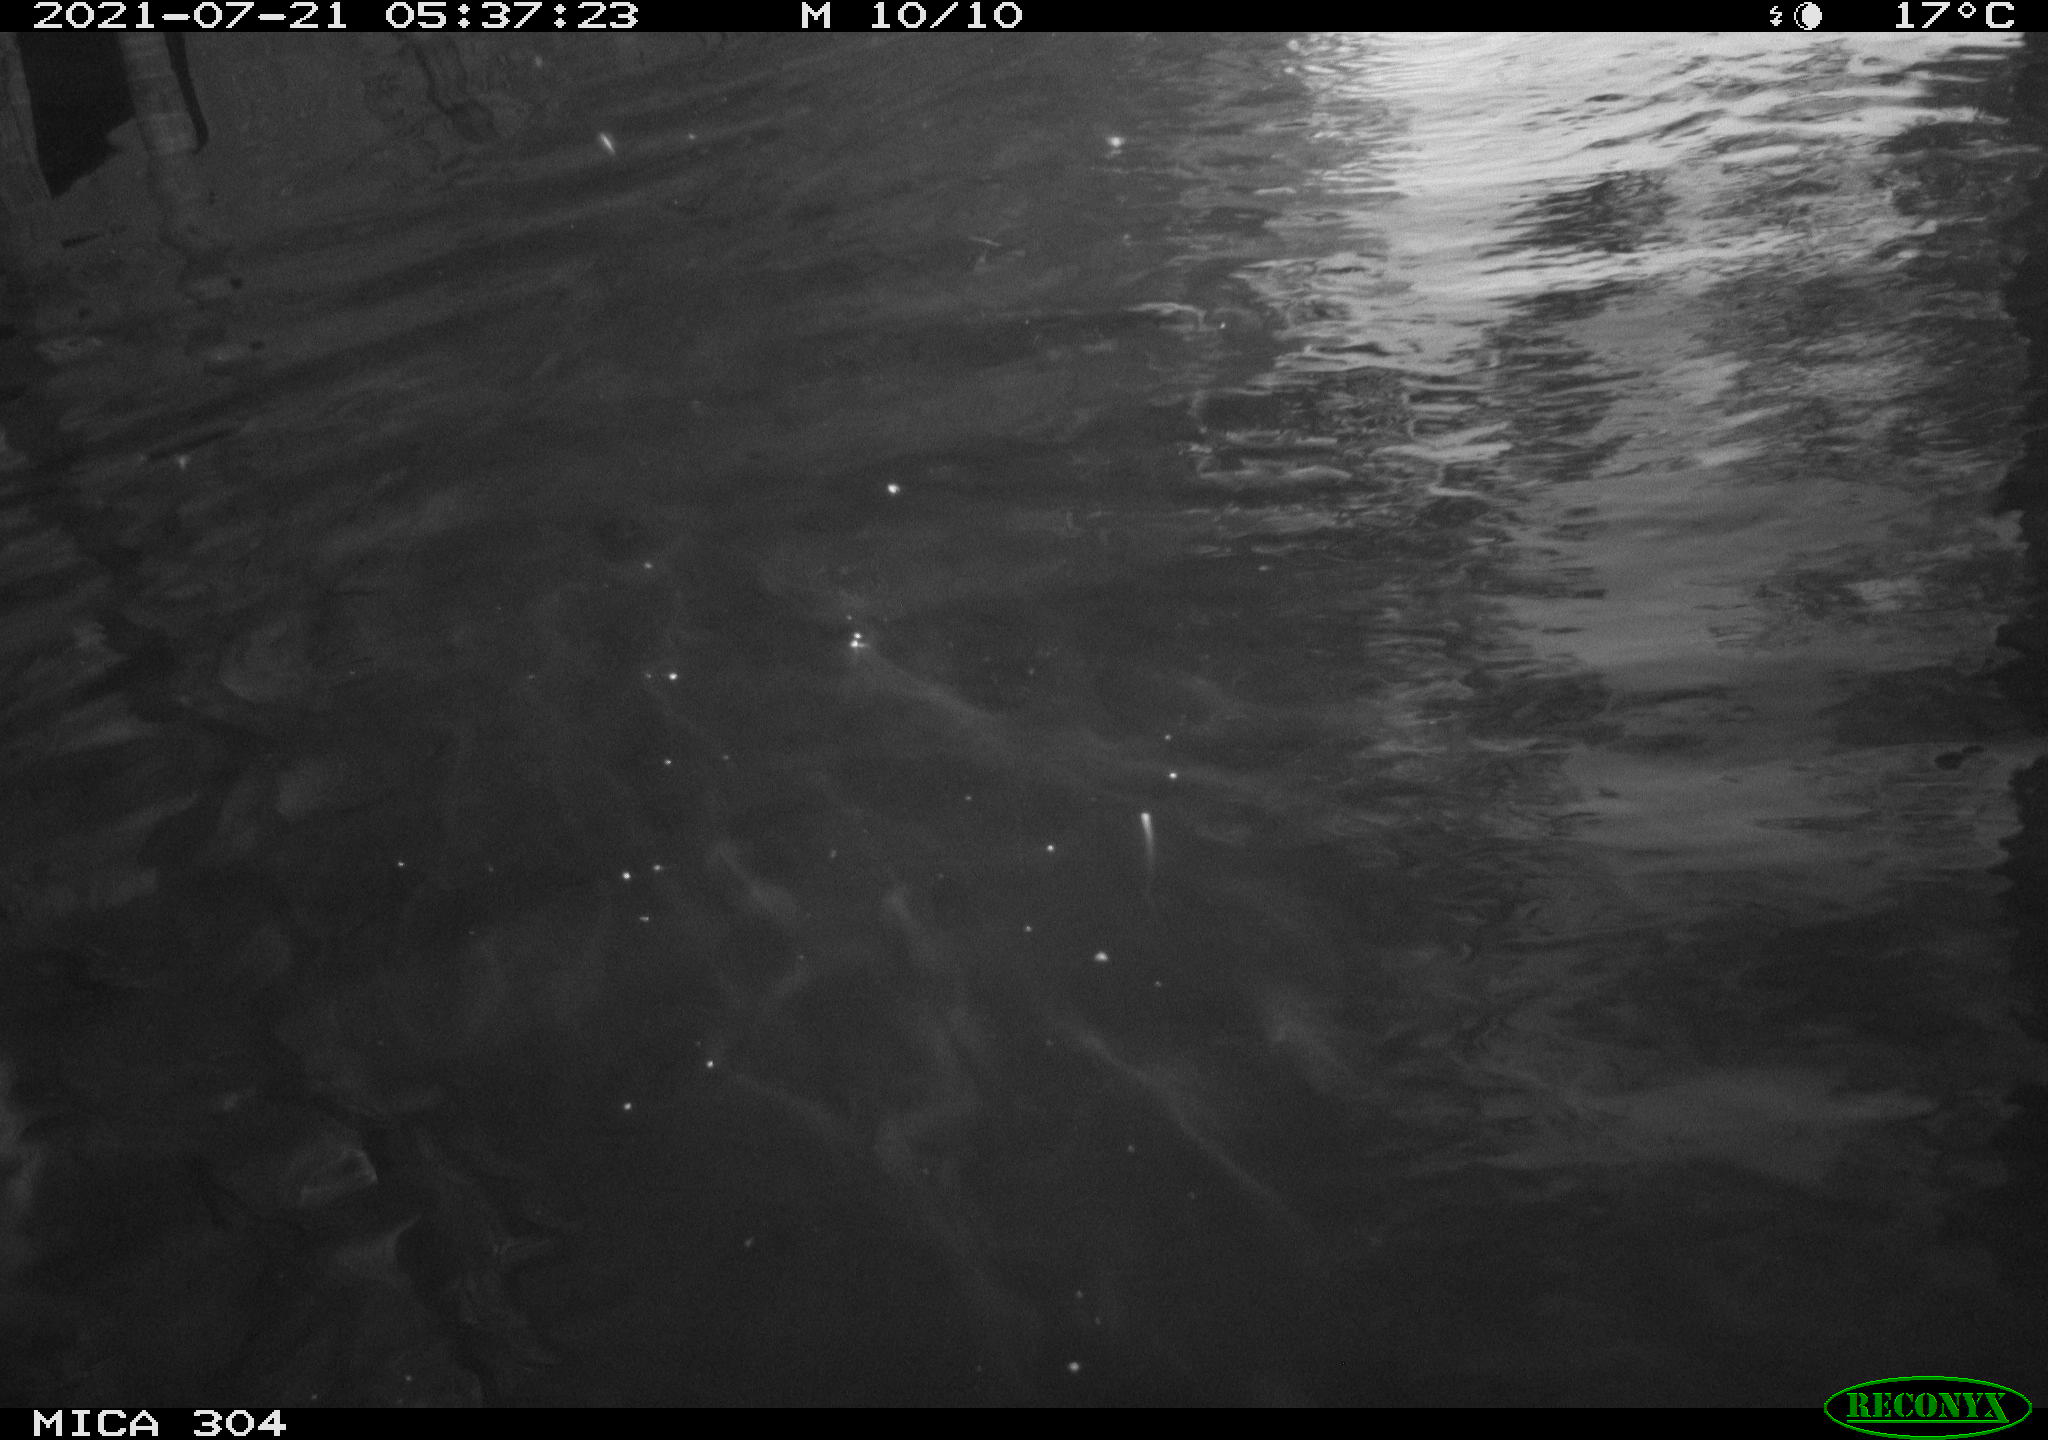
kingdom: Animalia
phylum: Chordata
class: Aves
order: Anseriformes
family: Anatidae
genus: Anas
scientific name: Anas platyrhynchos
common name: Mallard
